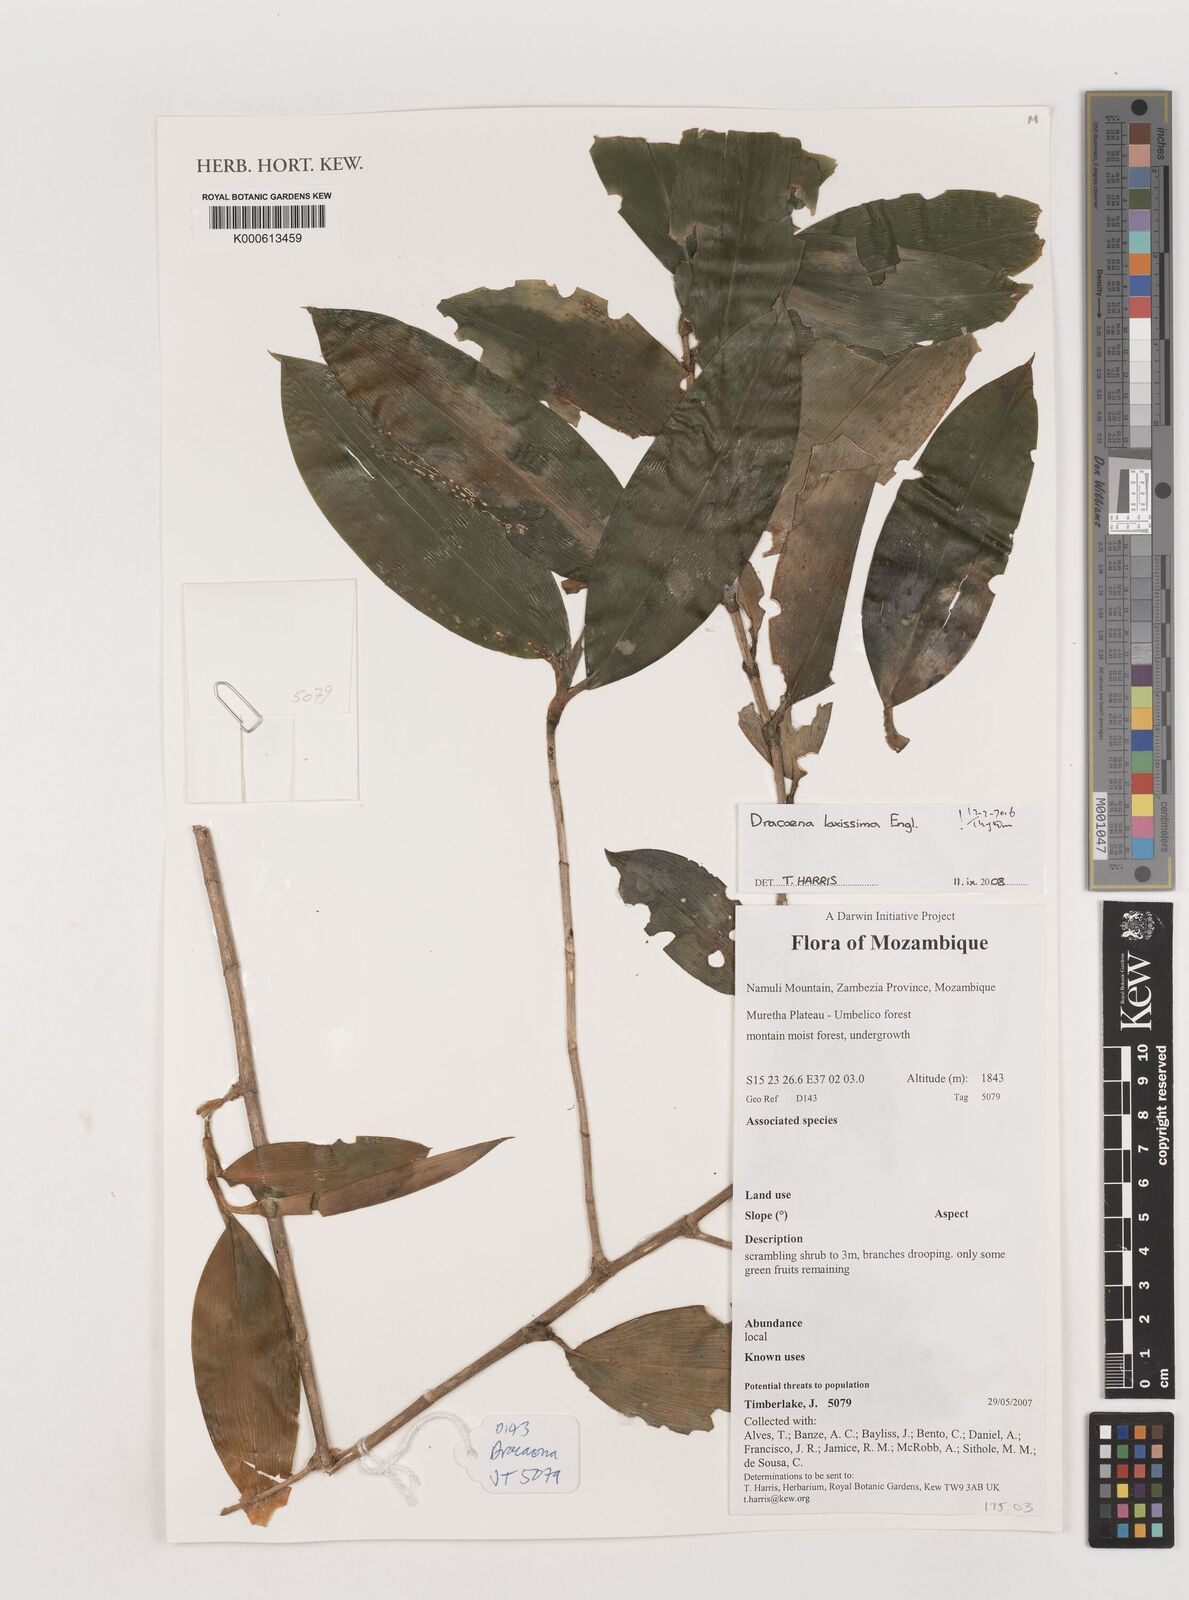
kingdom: Plantae
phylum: Tracheophyta
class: Liliopsida
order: Asparagales
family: Asparagaceae
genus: Dracaena
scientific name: Dracaena laxissima
